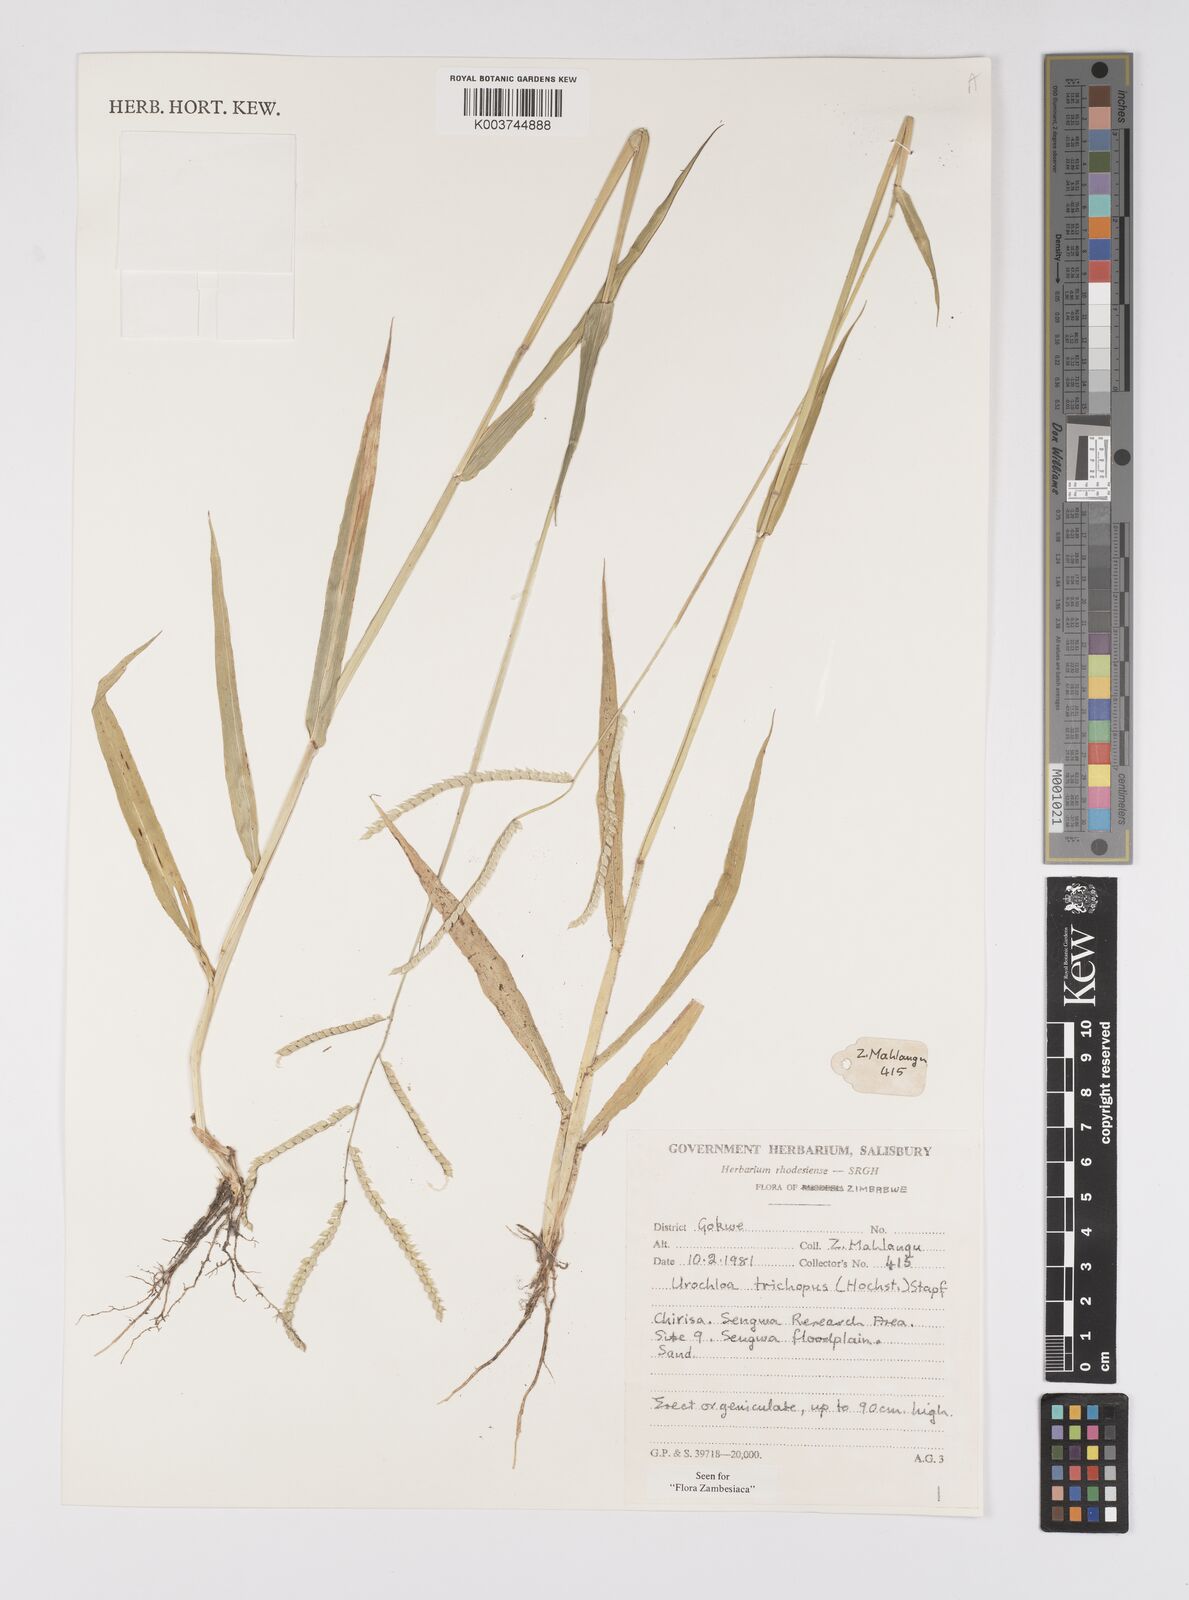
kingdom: Plantae
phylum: Tracheophyta
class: Liliopsida
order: Poales
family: Poaceae
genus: Urochloa
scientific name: Urochloa trichopus
